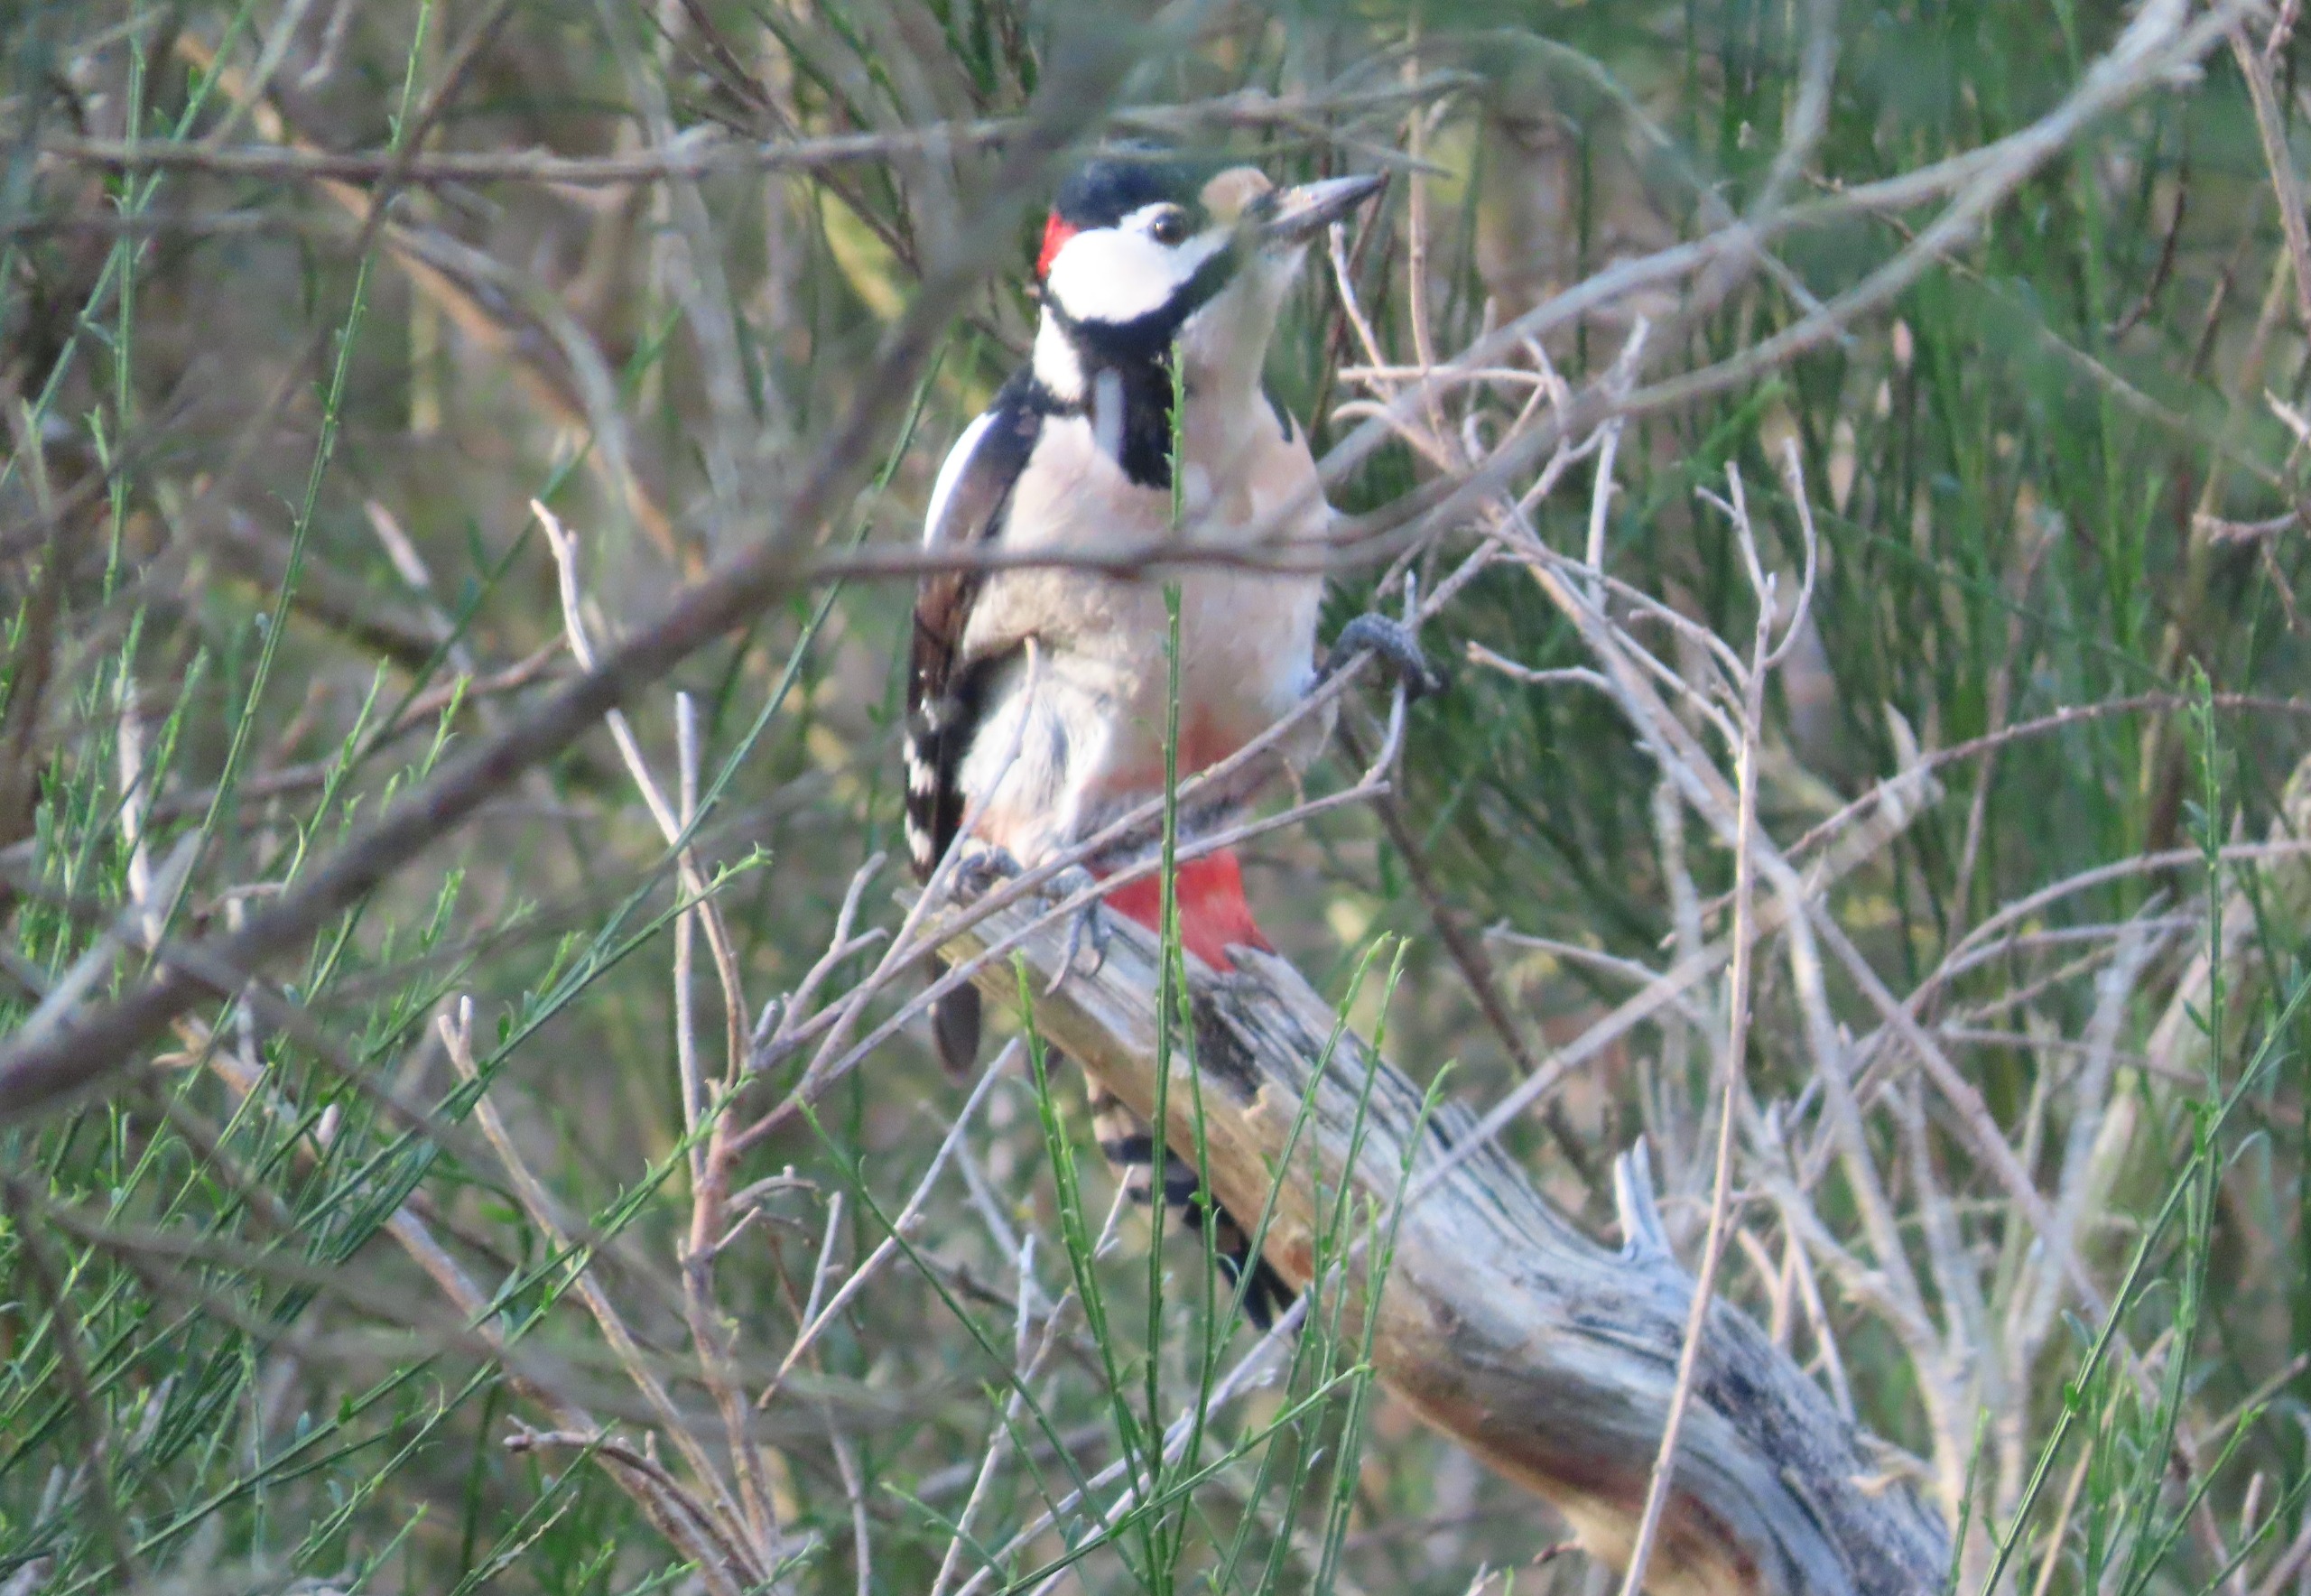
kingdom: Animalia
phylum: Chordata
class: Aves
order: Piciformes
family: Picidae
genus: Dendrocopos
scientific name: Dendrocopos major
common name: Stor flagspætte
